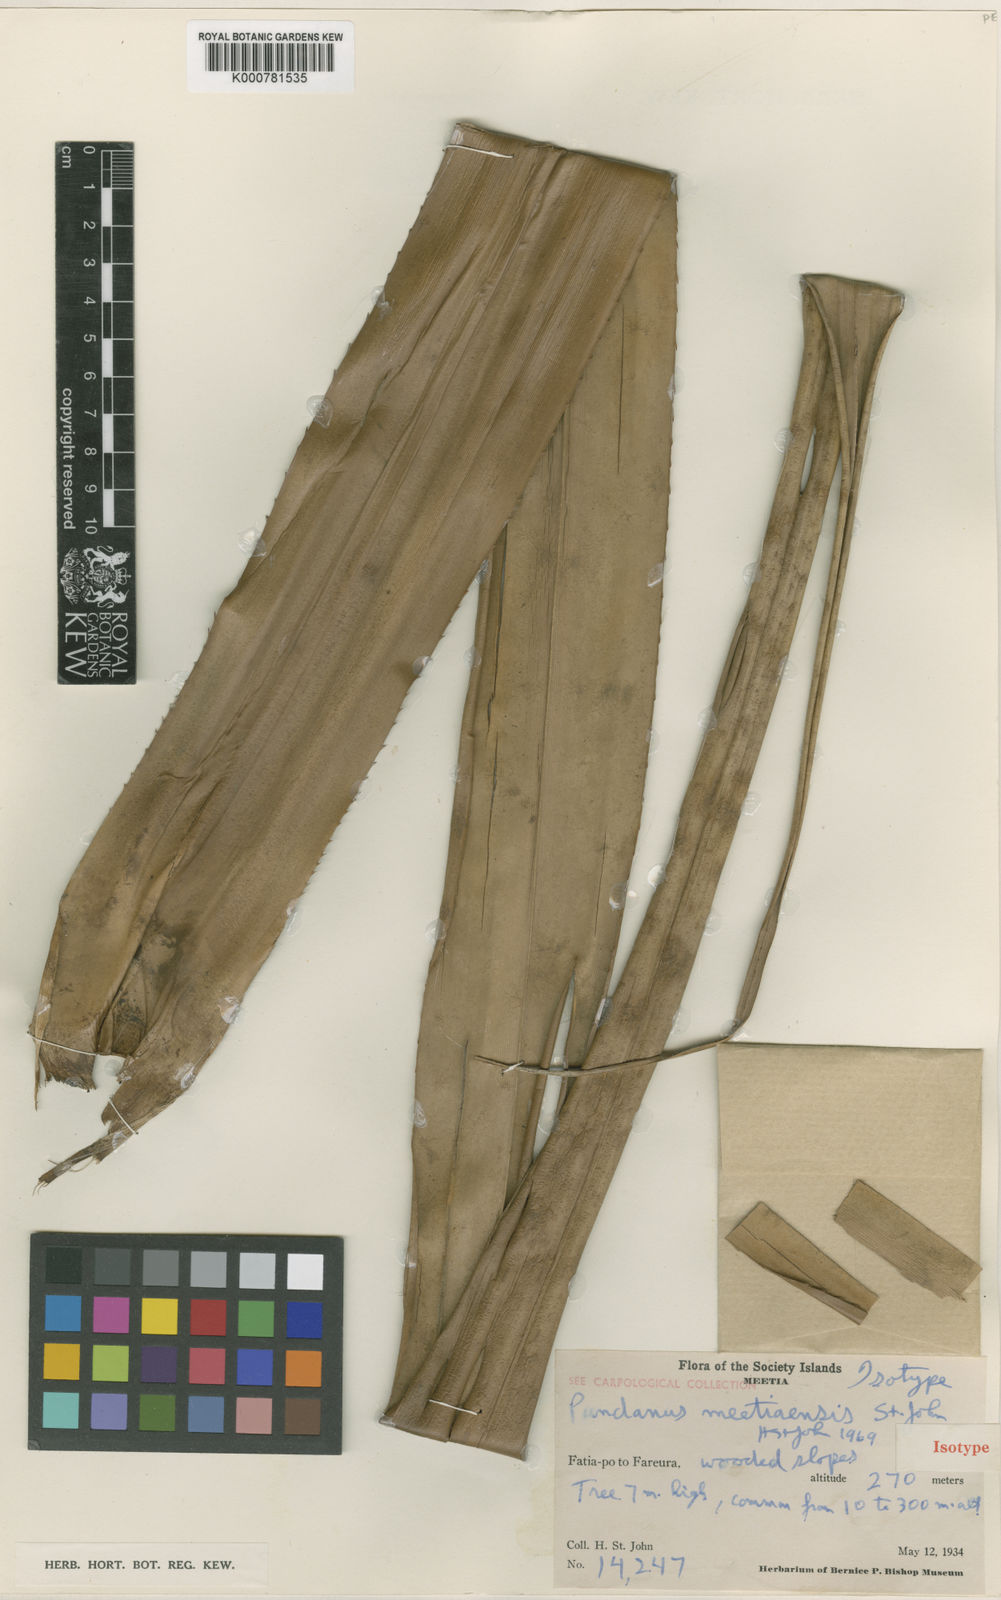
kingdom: Plantae
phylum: Tracheophyta
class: Liliopsida
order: Pandanales
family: Pandanaceae
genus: Pandanus
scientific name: Pandanus tectorius
